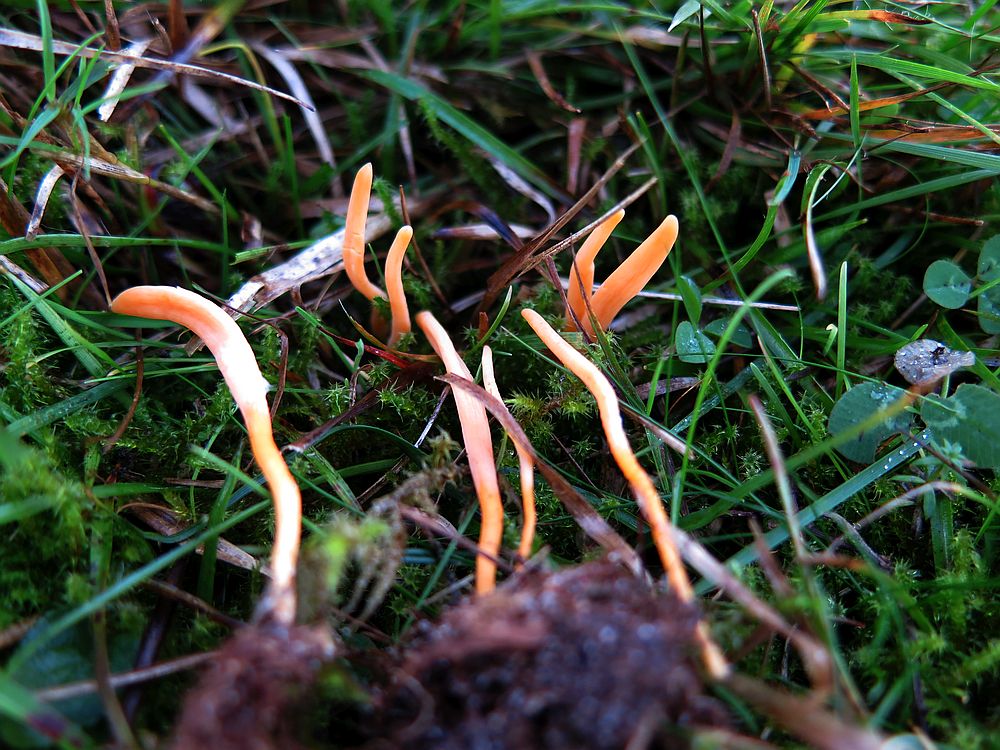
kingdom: Fungi
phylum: Basidiomycota
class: Agaricomycetes
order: Agaricales
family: Clavariaceae
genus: Clavulinopsis
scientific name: Clavulinopsis luteoalba
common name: abrikos-køllesvamp
